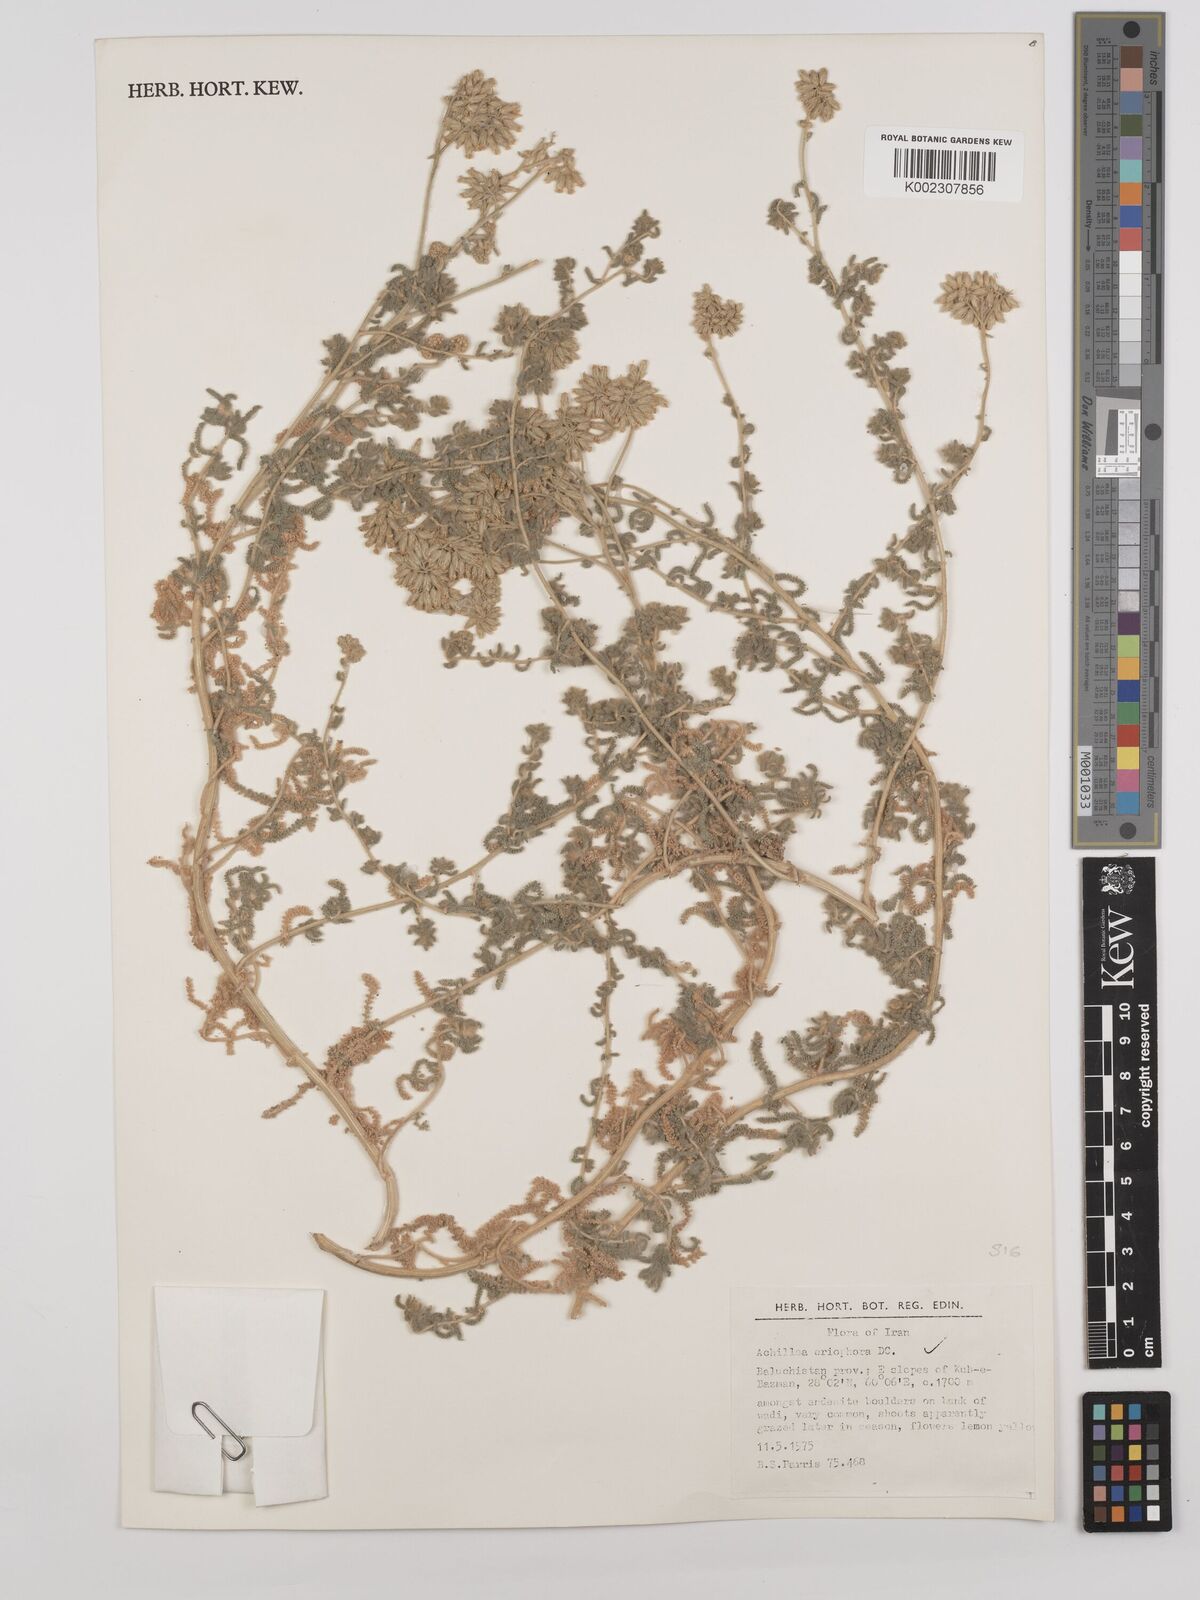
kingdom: Plantae
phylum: Tracheophyta
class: Magnoliopsida
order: Asterales
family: Asteraceae
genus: Achillea
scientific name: Achillea wilhelmsii
